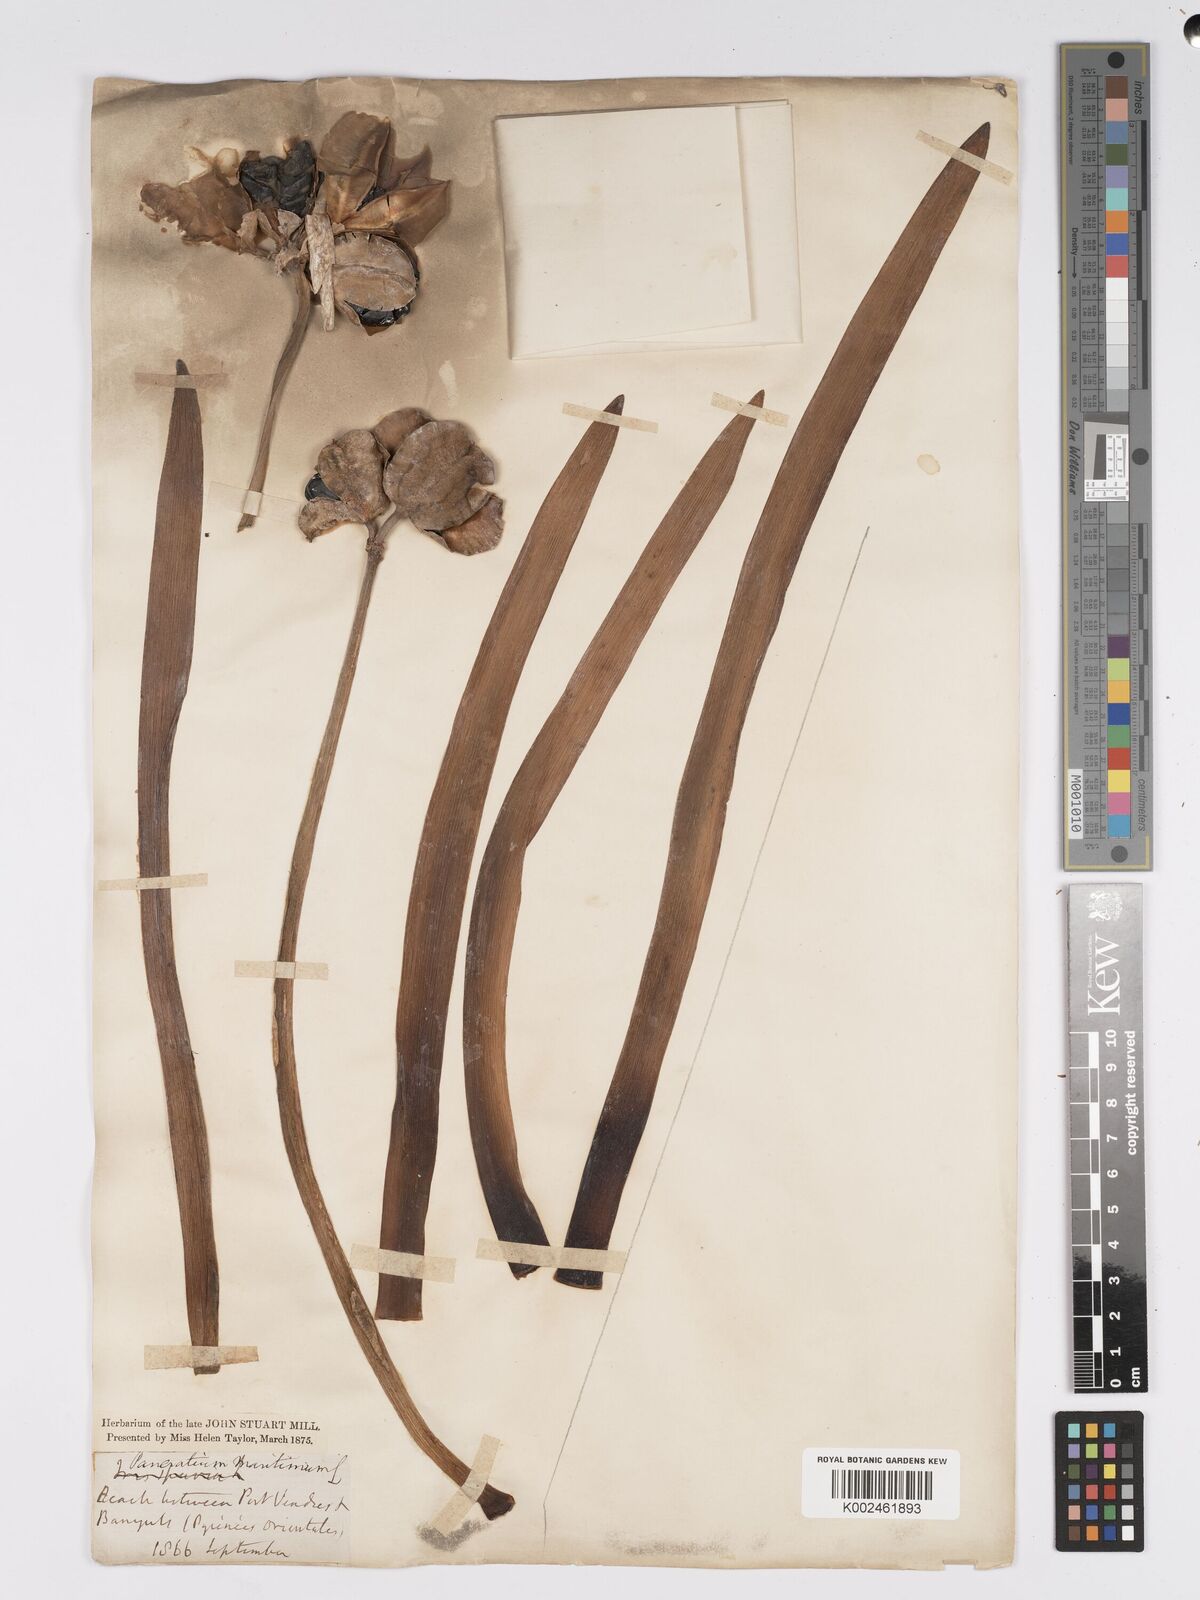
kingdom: Plantae
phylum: Tracheophyta
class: Liliopsida
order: Asparagales
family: Amaryllidaceae
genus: Pancratium
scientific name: Pancratium maritimum
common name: Sea-daffodil
